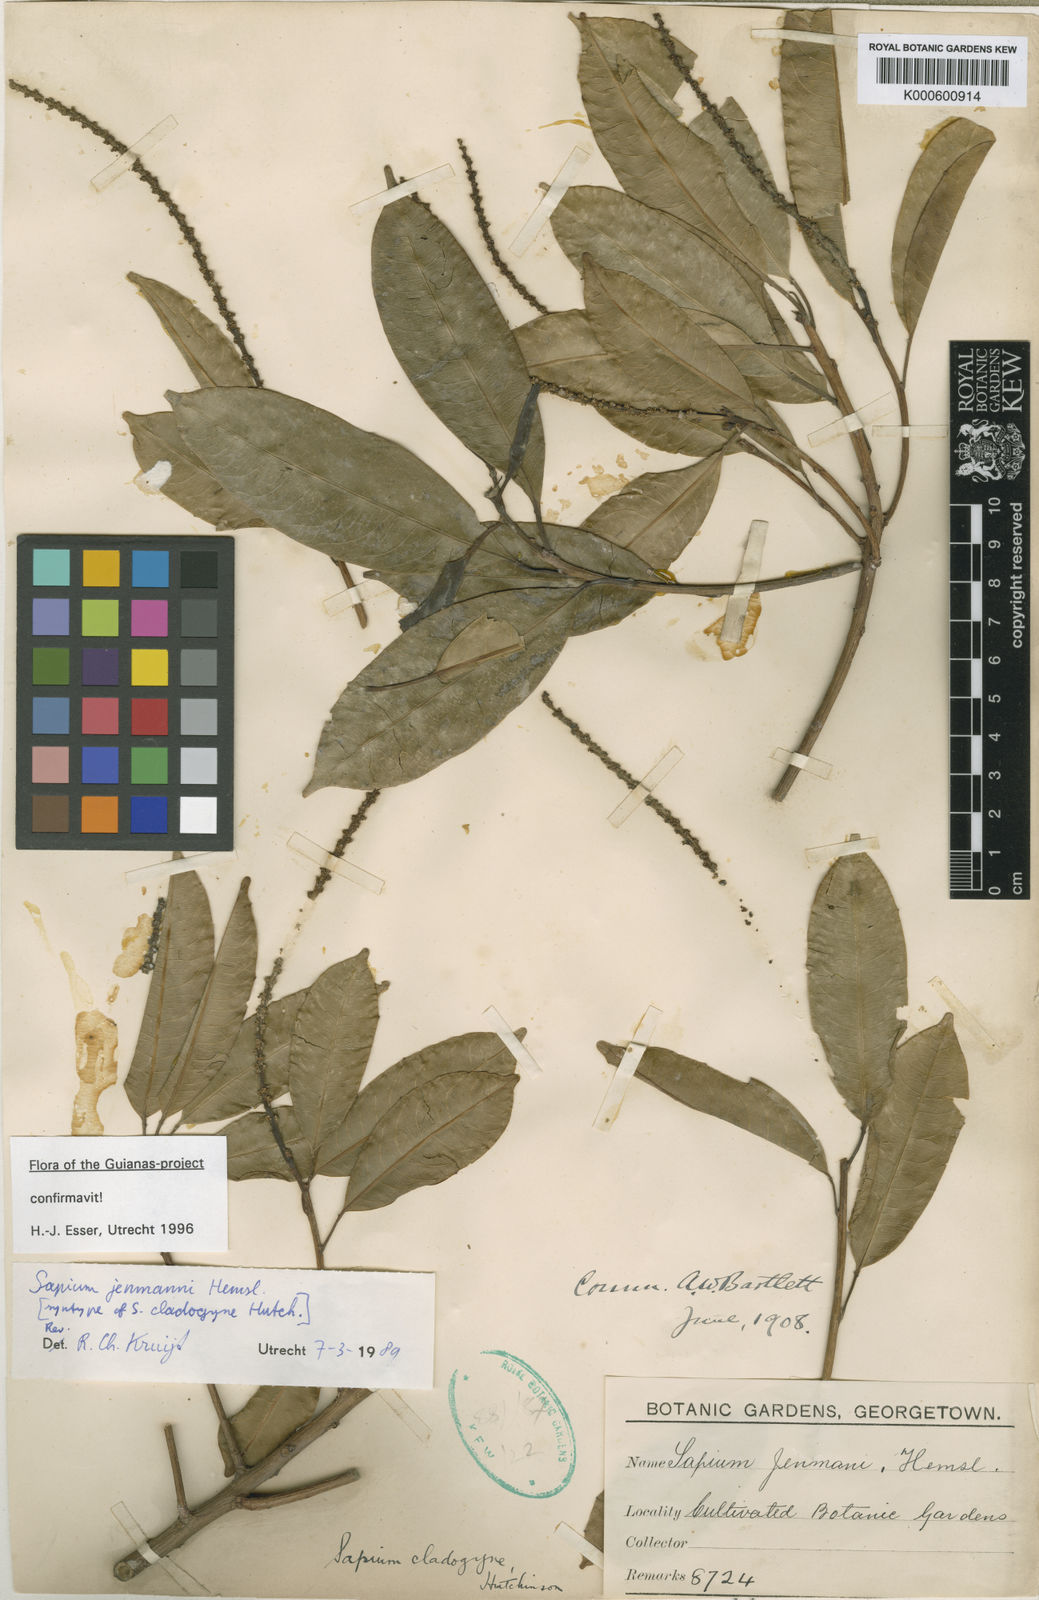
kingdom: Plantae
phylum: Tracheophyta
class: Magnoliopsida
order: Malpighiales
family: Euphorbiaceae
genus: Sapium
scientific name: Sapium jenmannii
